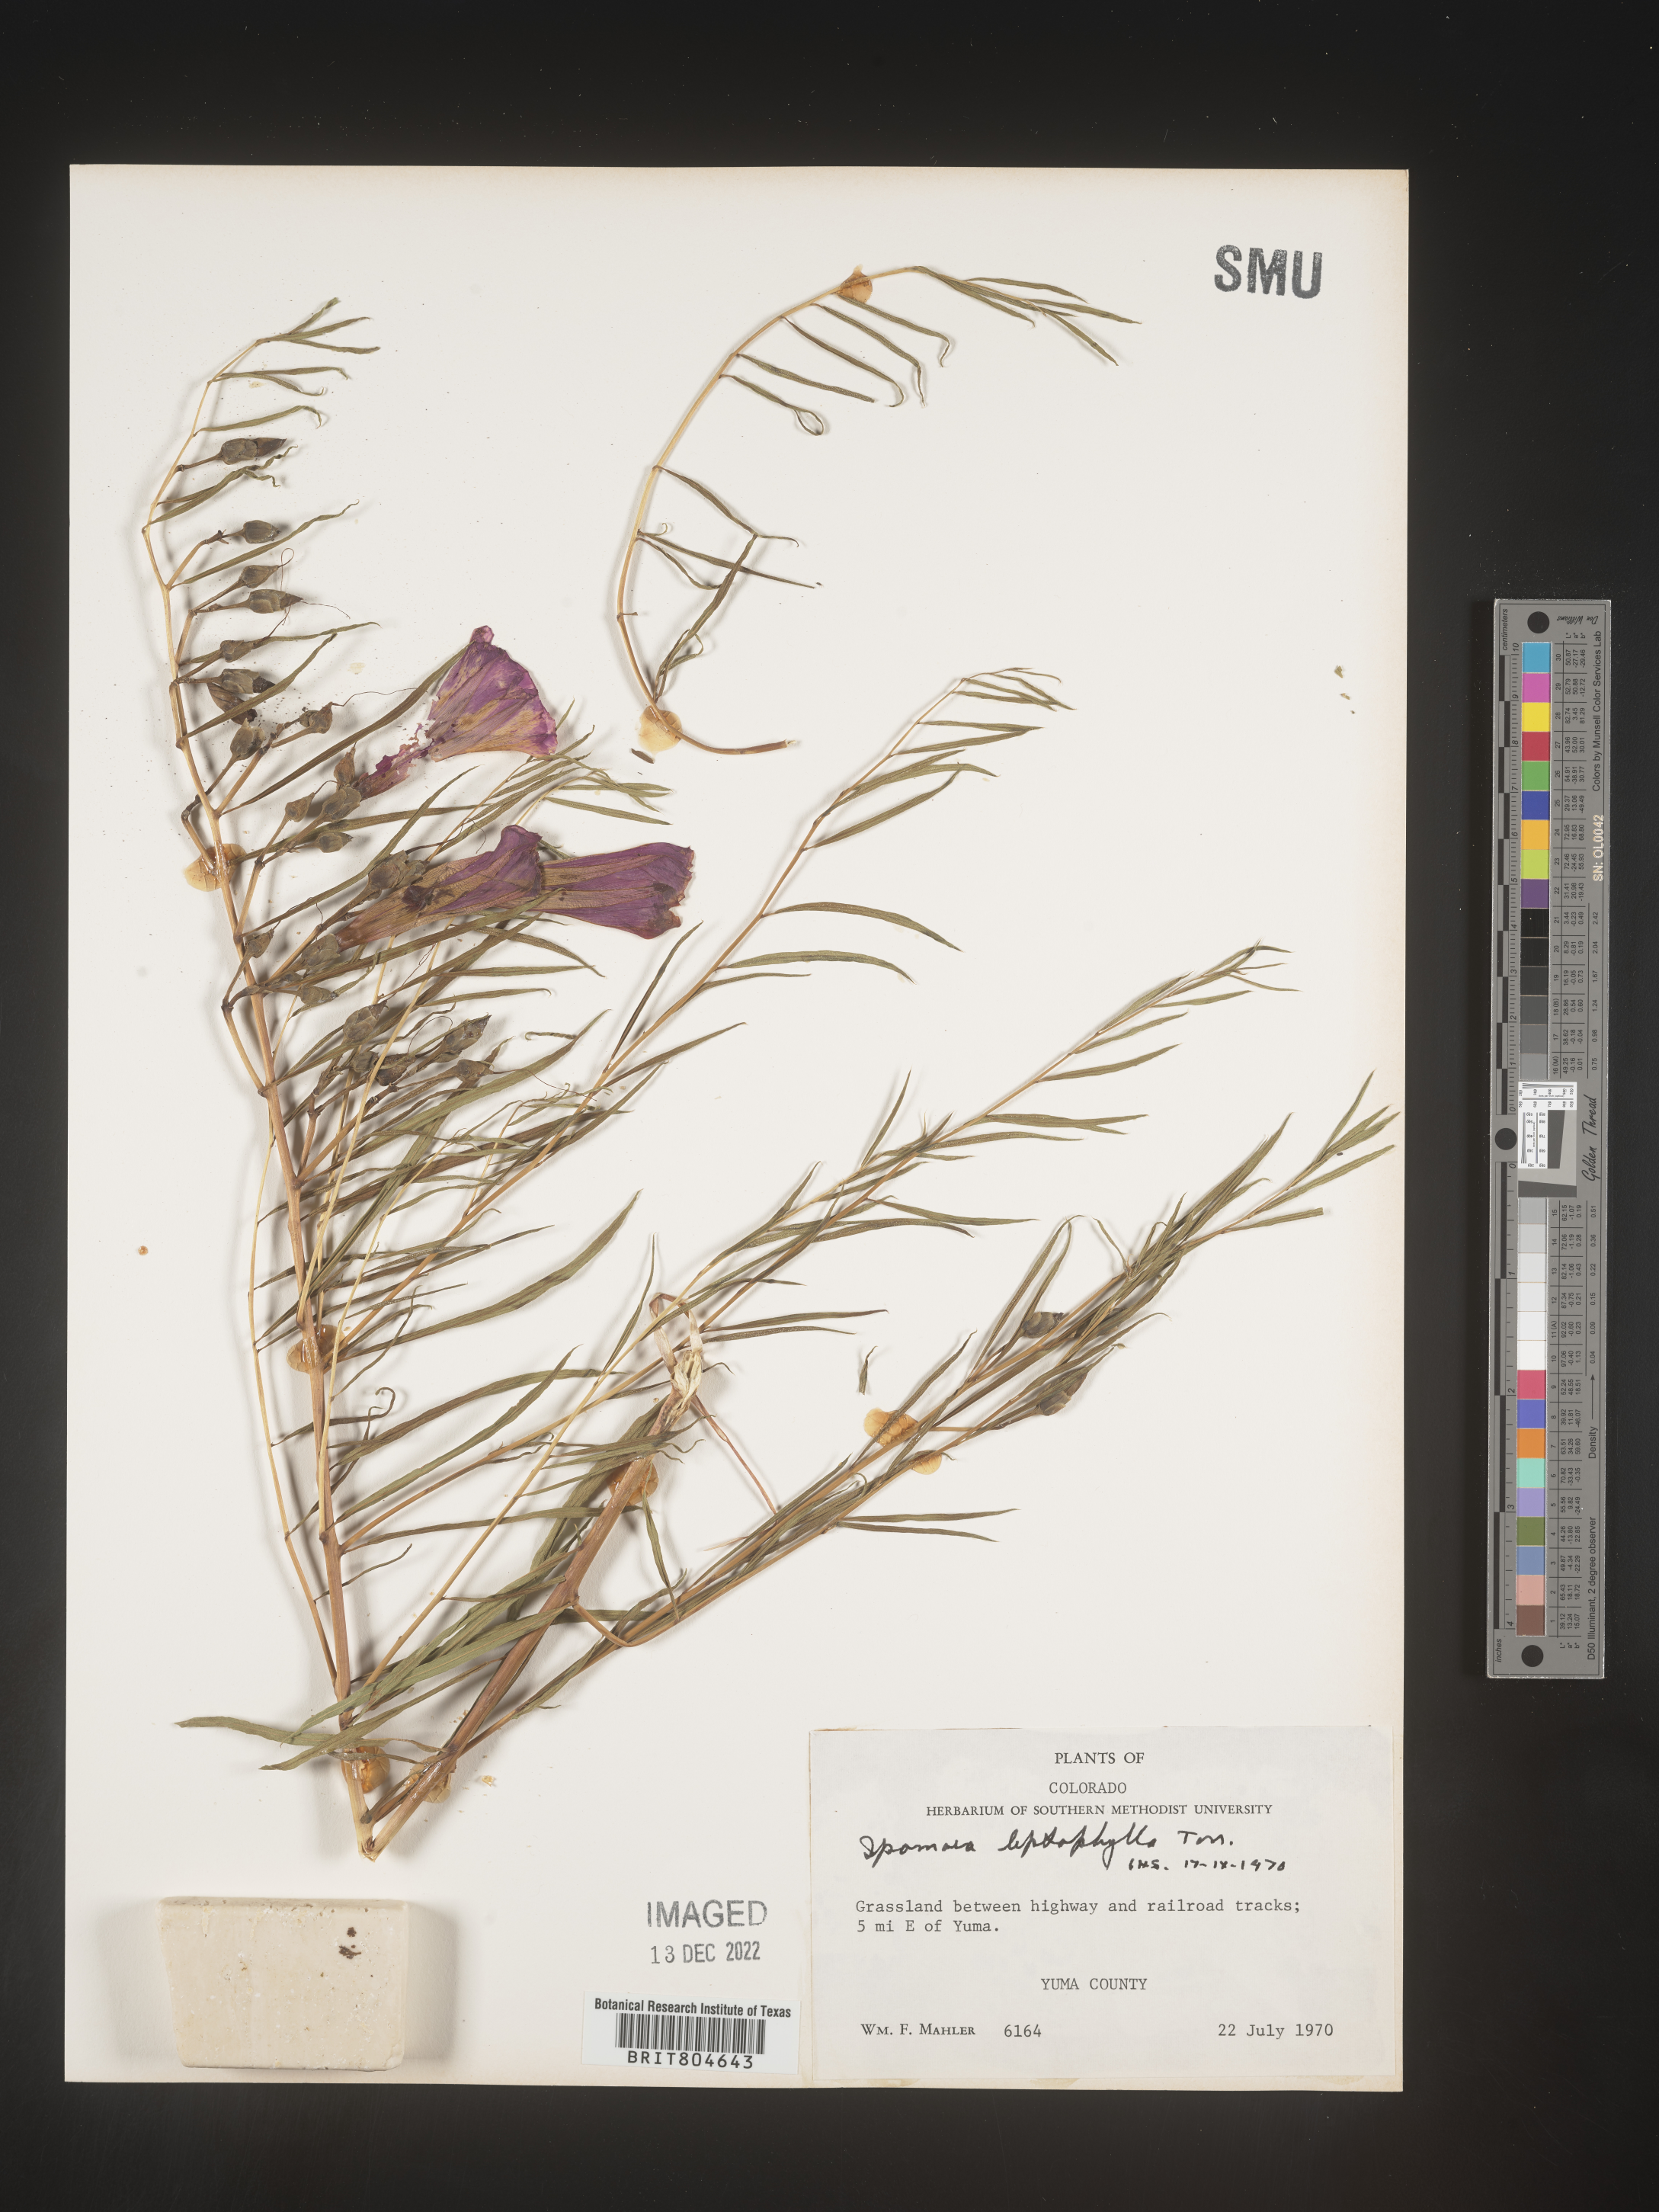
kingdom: Plantae
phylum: Tracheophyta
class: Magnoliopsida
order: Solanales
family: Convolvulaceae
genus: Ipomoea
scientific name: Ipomoea leptophylla
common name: Bush moonflower
